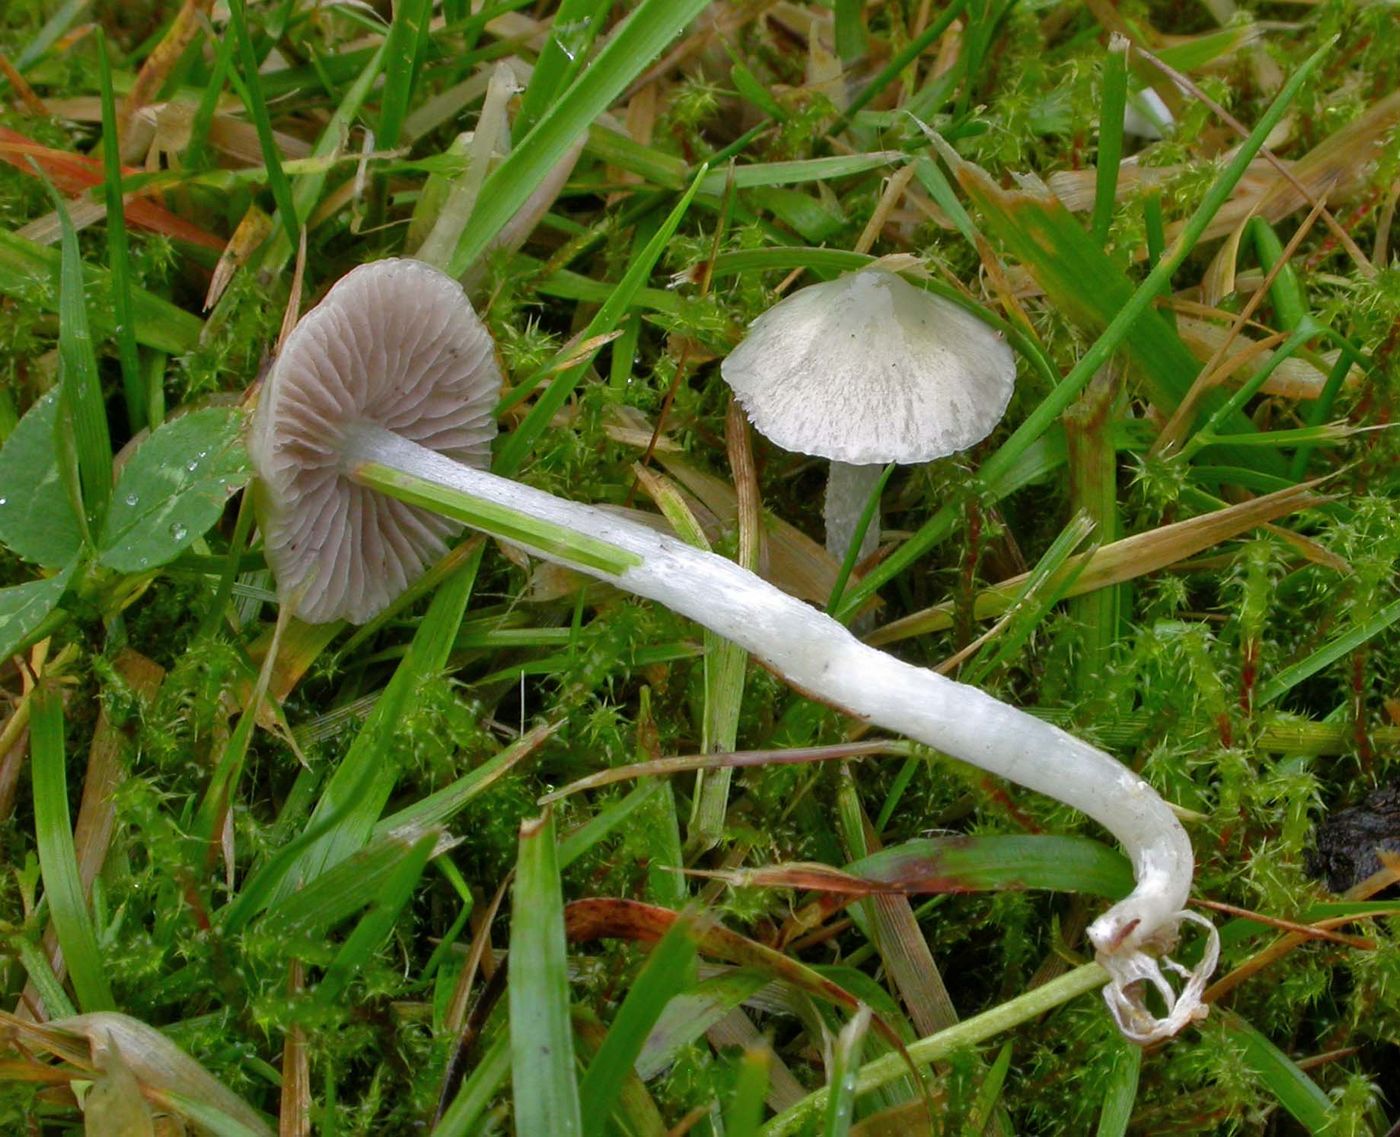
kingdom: Fungi
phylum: Basidiomycota
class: Agaricomycetes
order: Agaricales
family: Strophariaceae
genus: Stropharia
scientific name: Stropharia pseudocyanea
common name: blegblå bredblad
